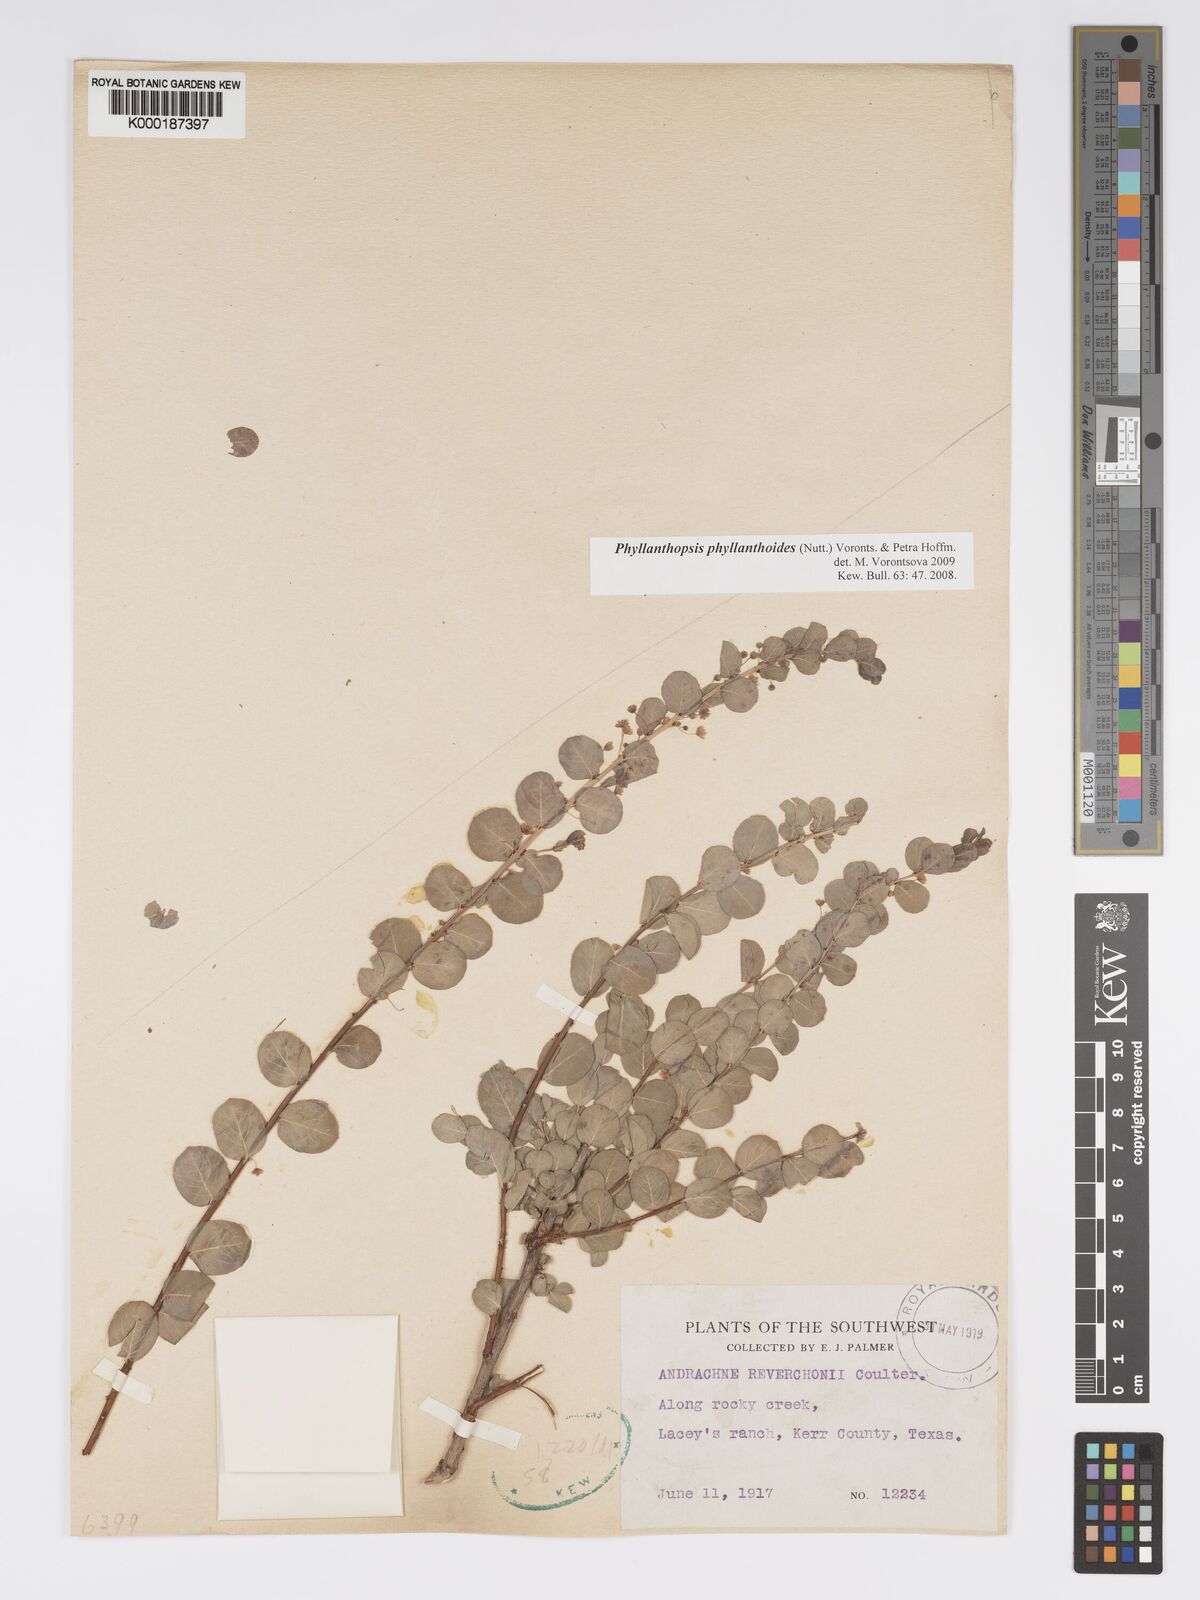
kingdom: Plantae
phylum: Tracheophyta
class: Magnoliopsida
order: Malpighiales
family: Phyllanthaceae
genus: Andrachne
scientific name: Andrachne
